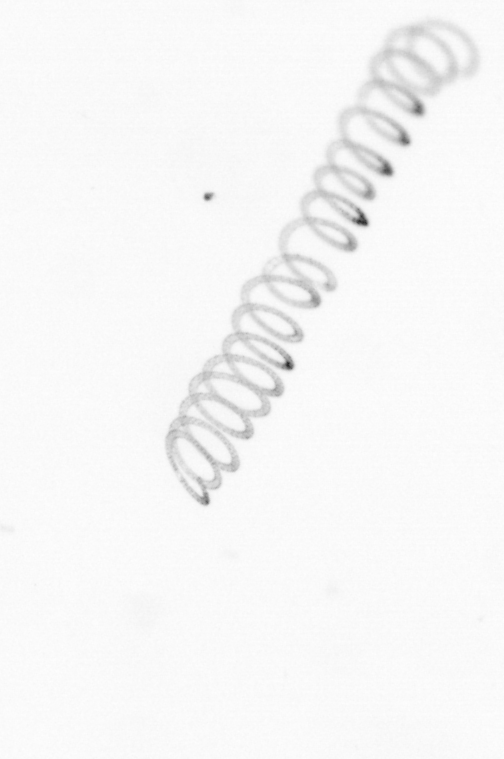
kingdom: Chromista
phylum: Ochrophyta
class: Bacillariophyceae
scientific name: Bacillariophyceae
